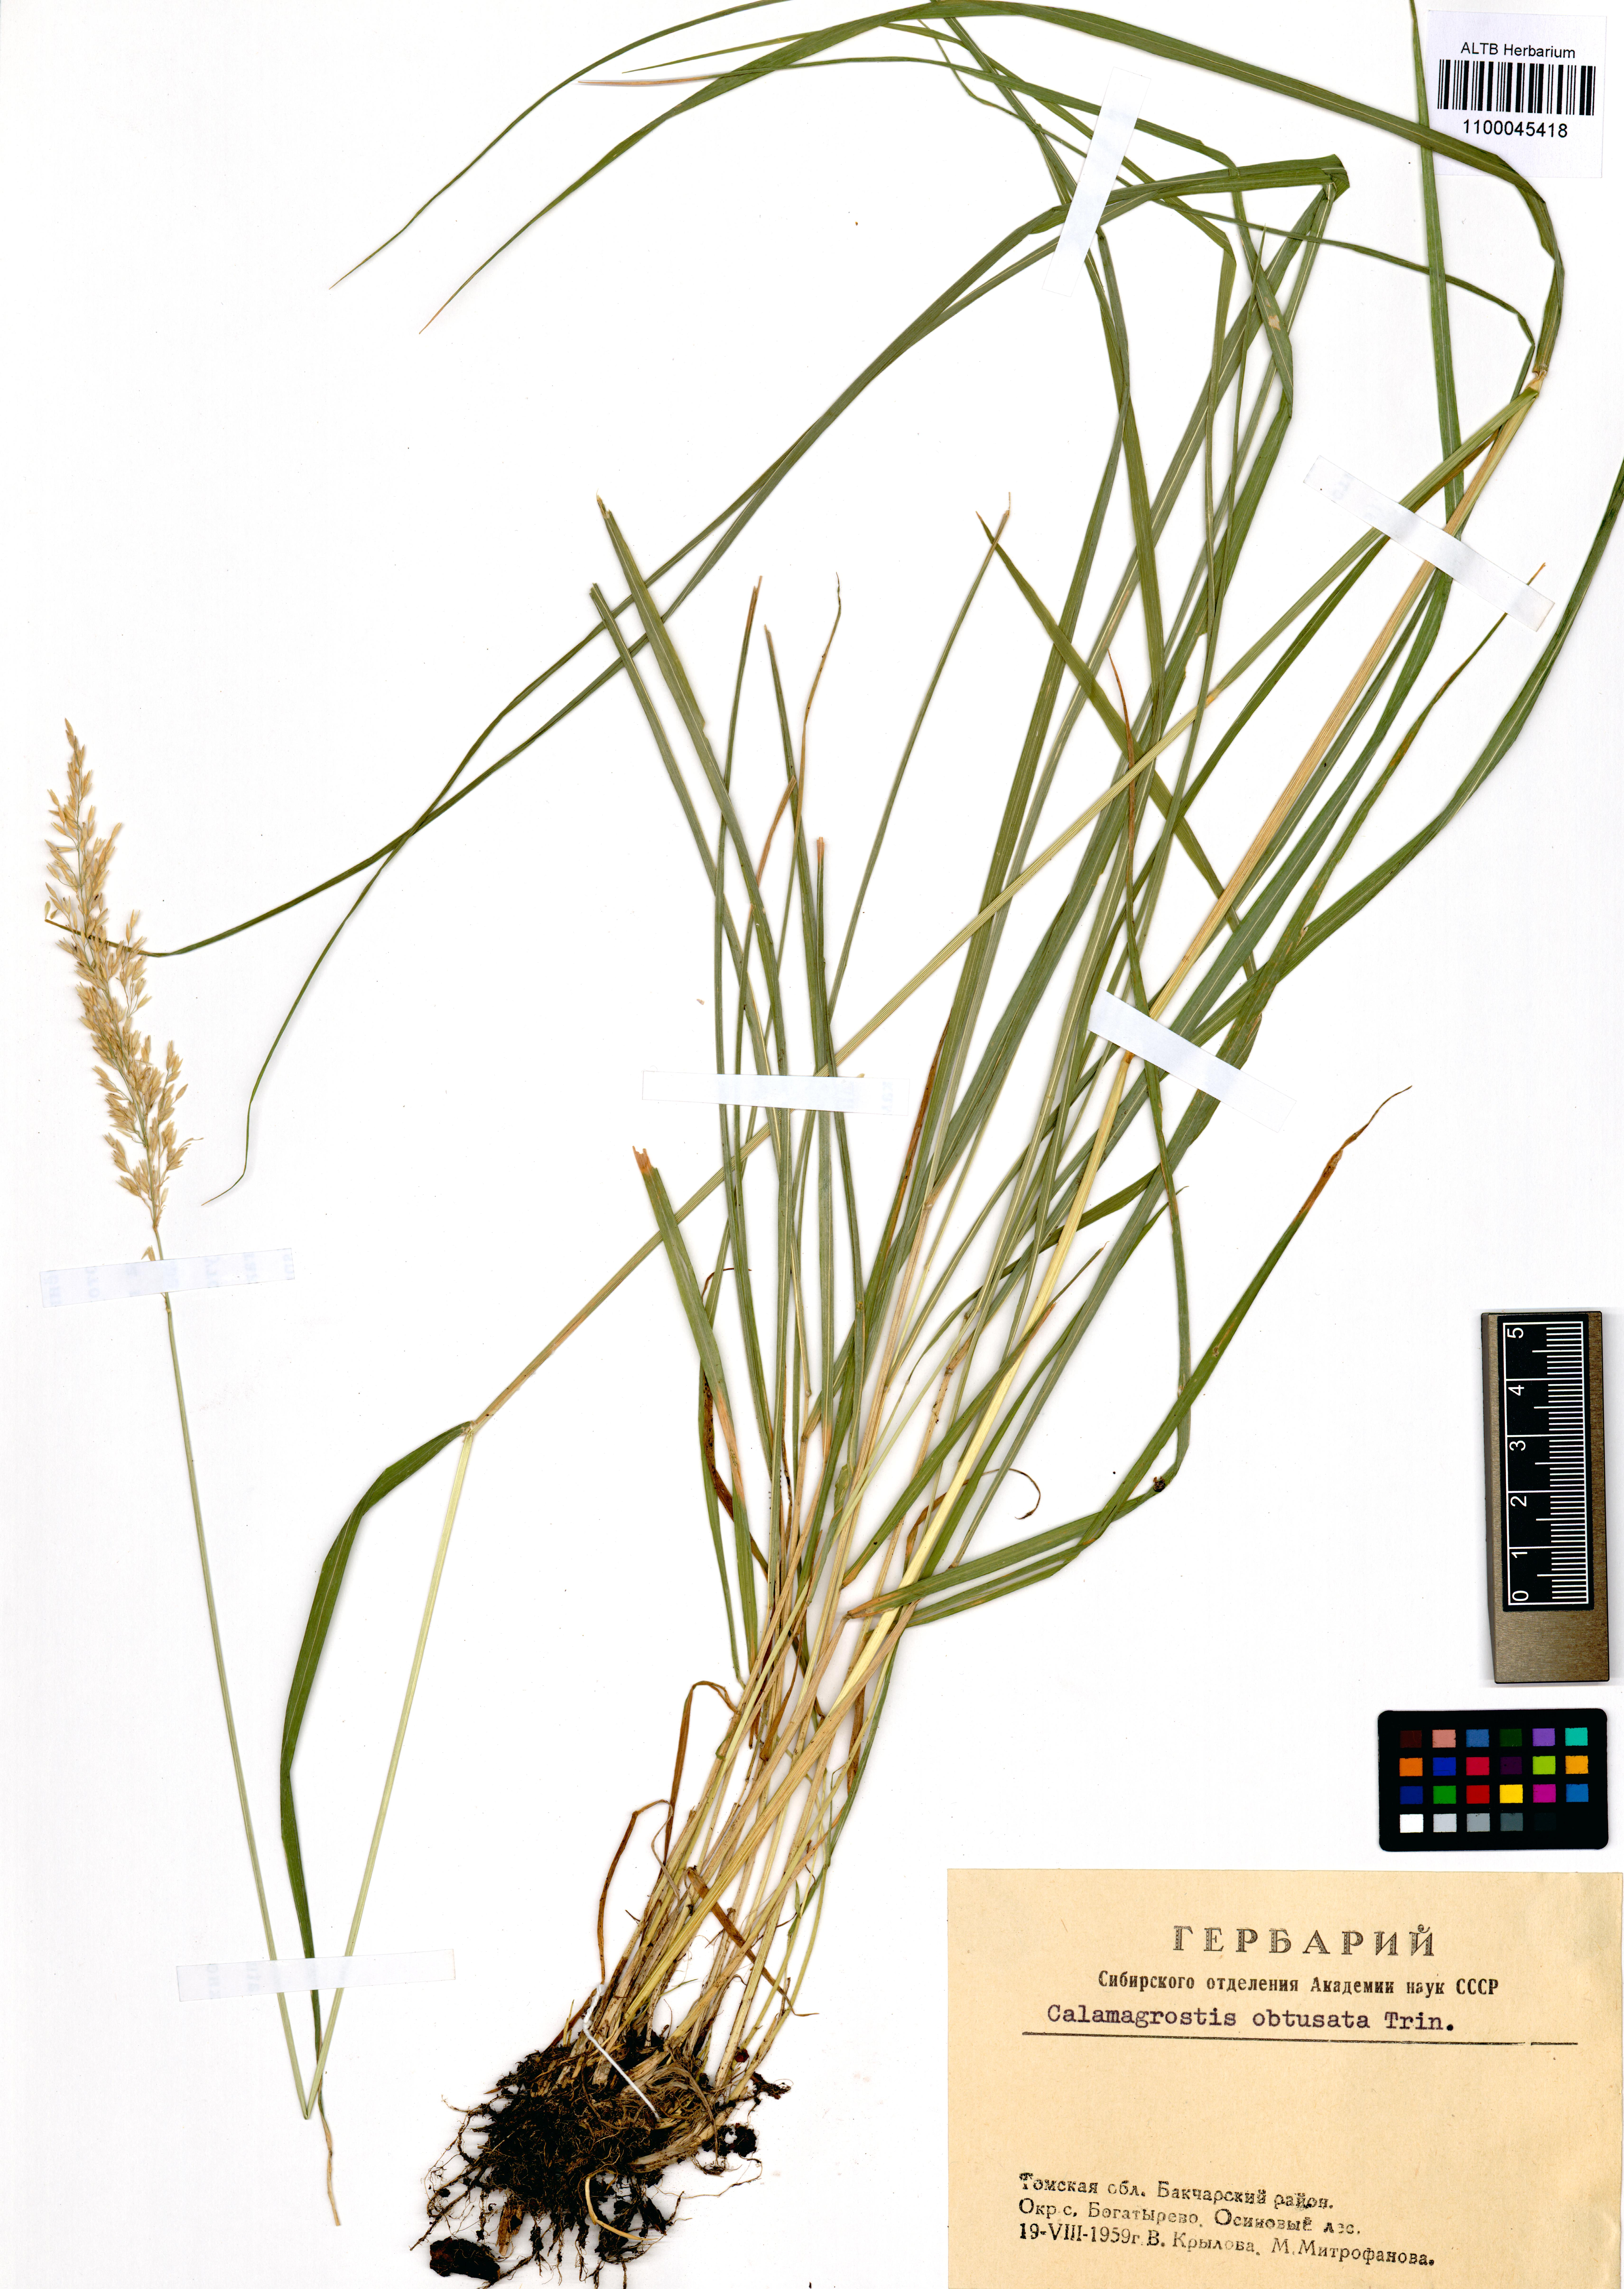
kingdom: Plantae
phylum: Tracheophyta
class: Liliopsida
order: Poales
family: Poaceae
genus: Calamagrostis
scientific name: Calamagrostis obtusata
